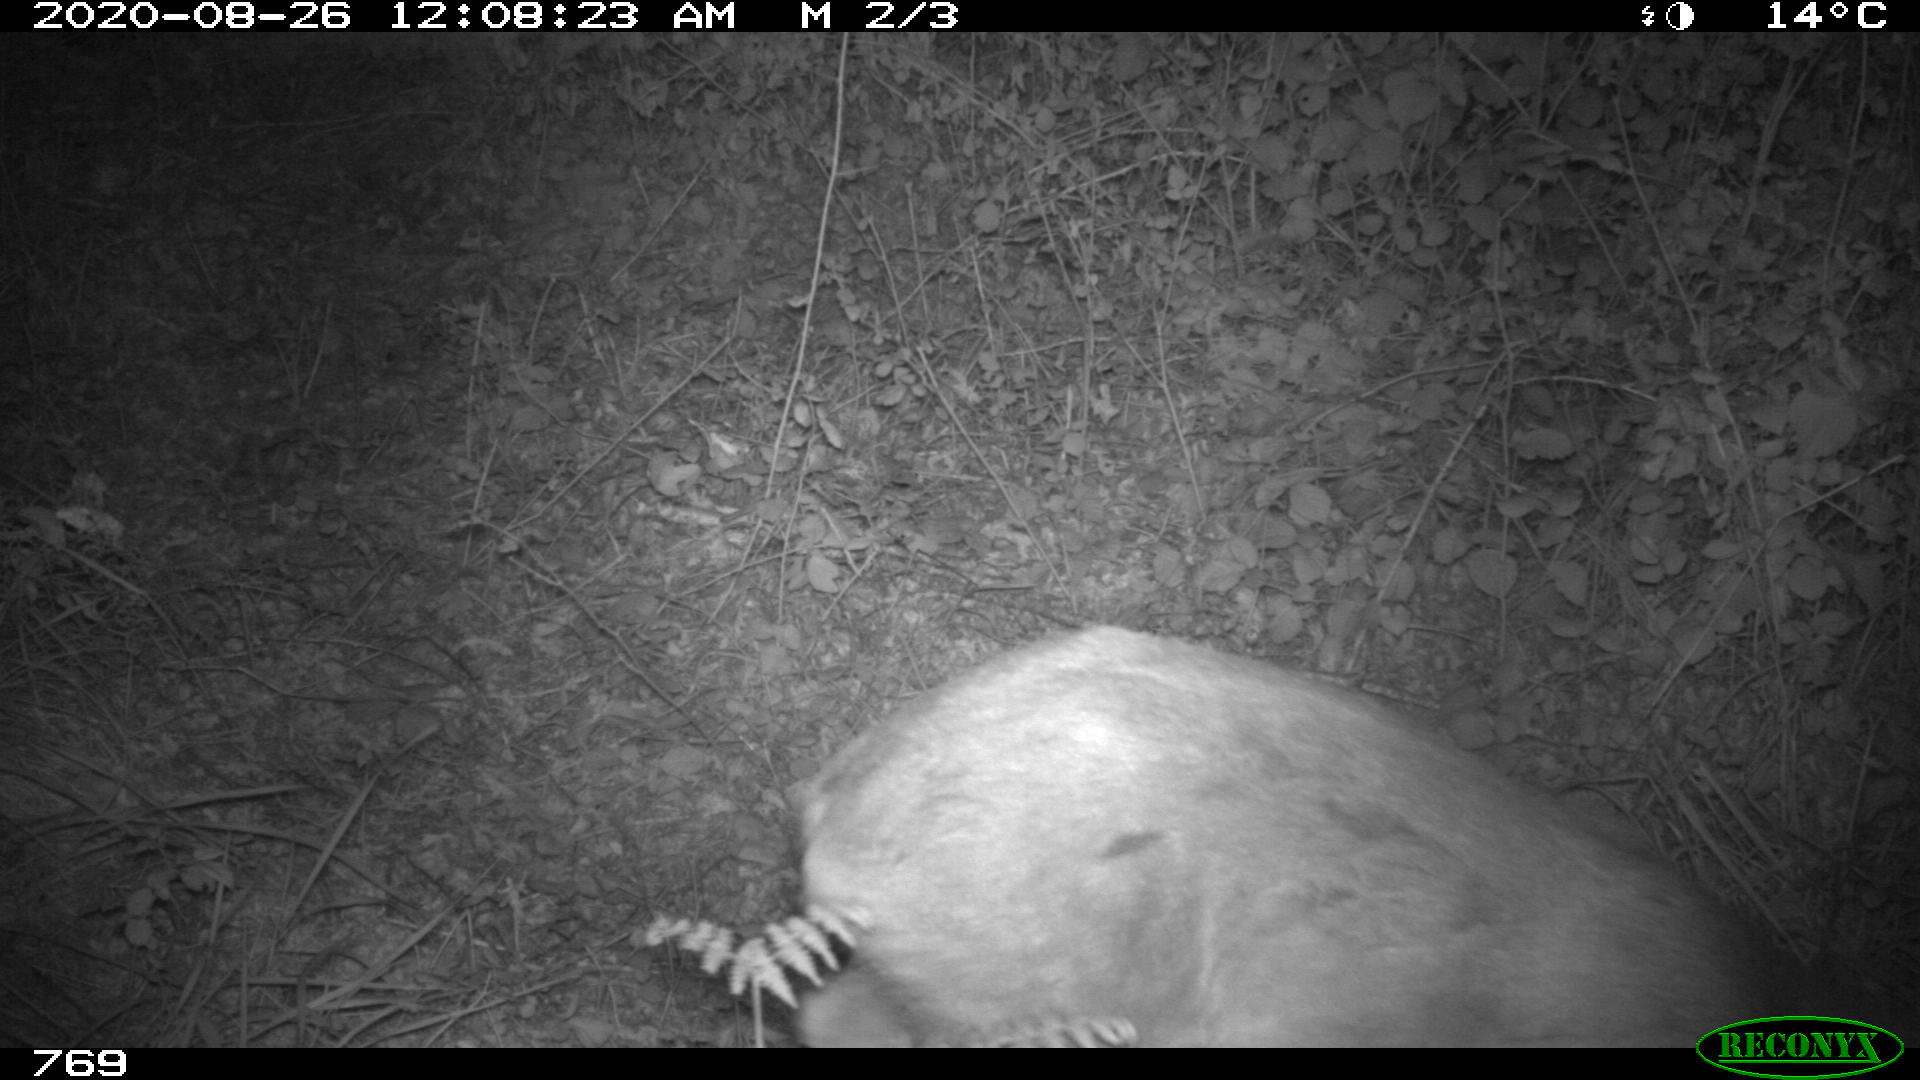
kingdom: Animalia
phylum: Chordata
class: Mammalia
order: Artiodactyla
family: Cervidae
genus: Capreolus
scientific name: Capreolus capreolus
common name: Western roe deer
